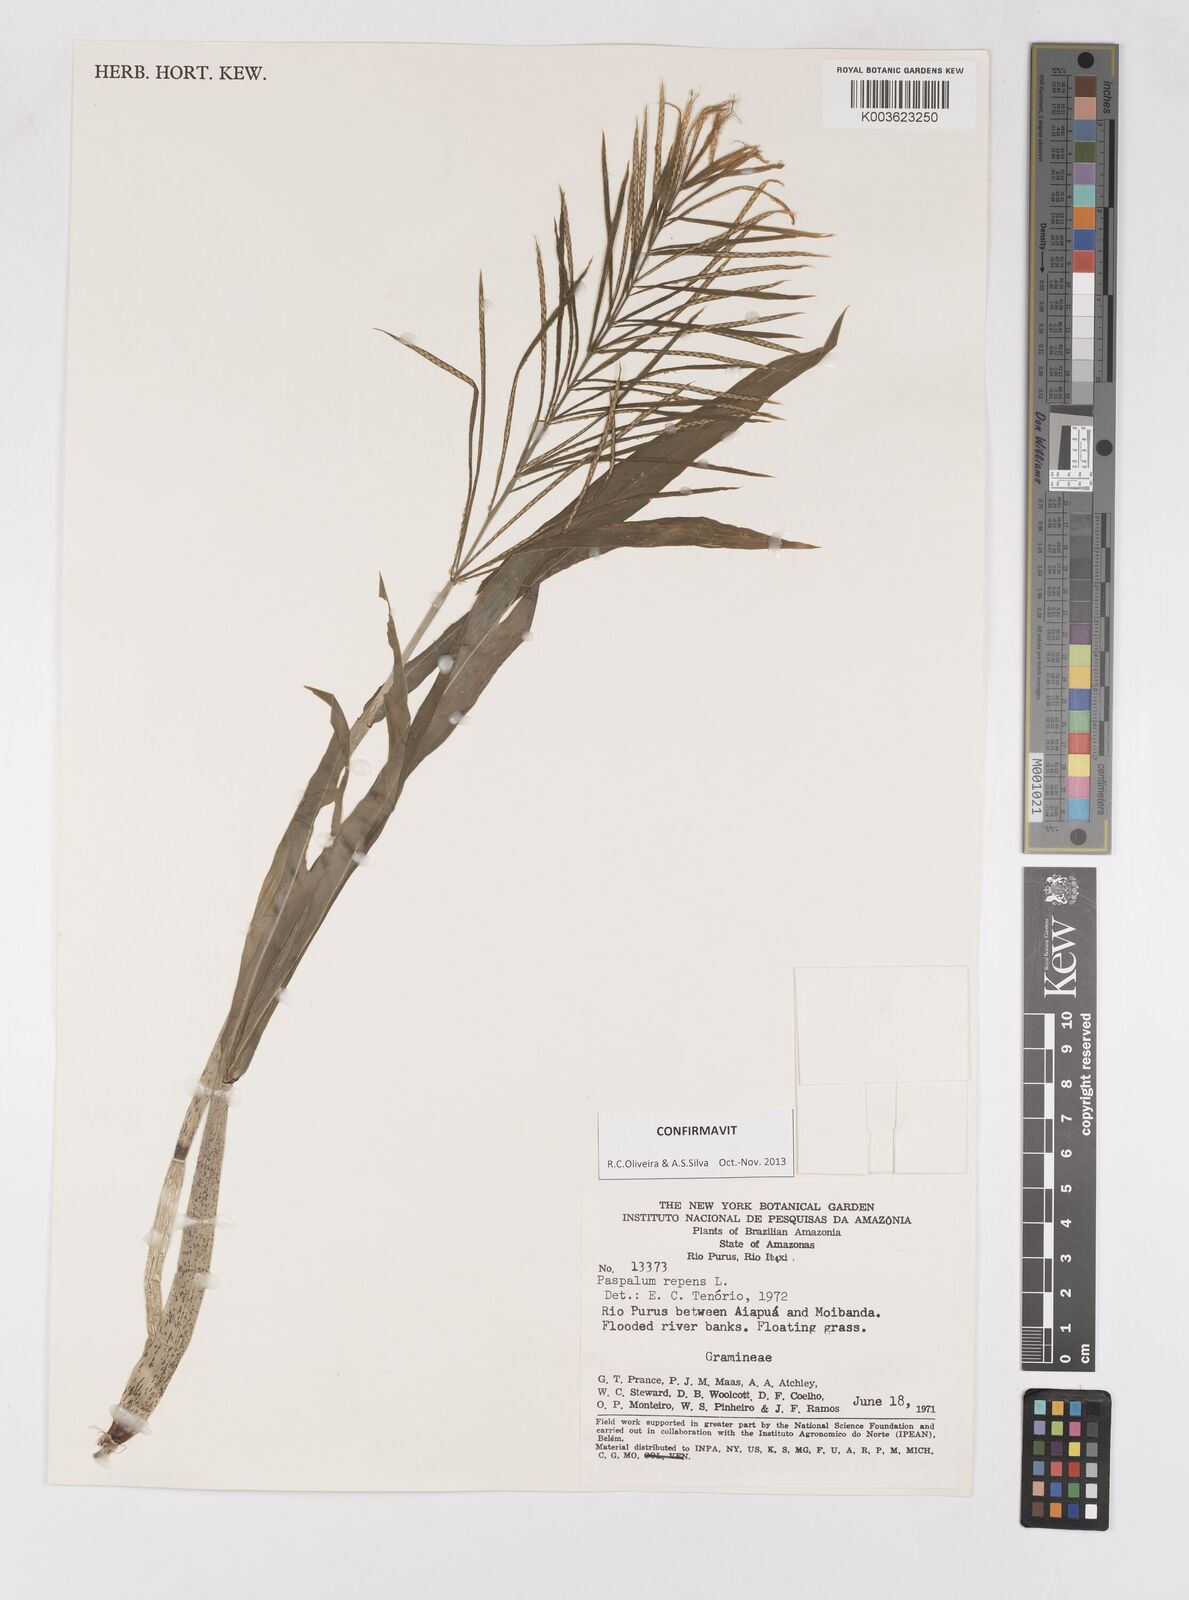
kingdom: Plantae
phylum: Tracheophyta
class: Liliopsida
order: Poales
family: Poaceae
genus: Paspalum
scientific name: Paspalum repens
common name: Water paspalum
